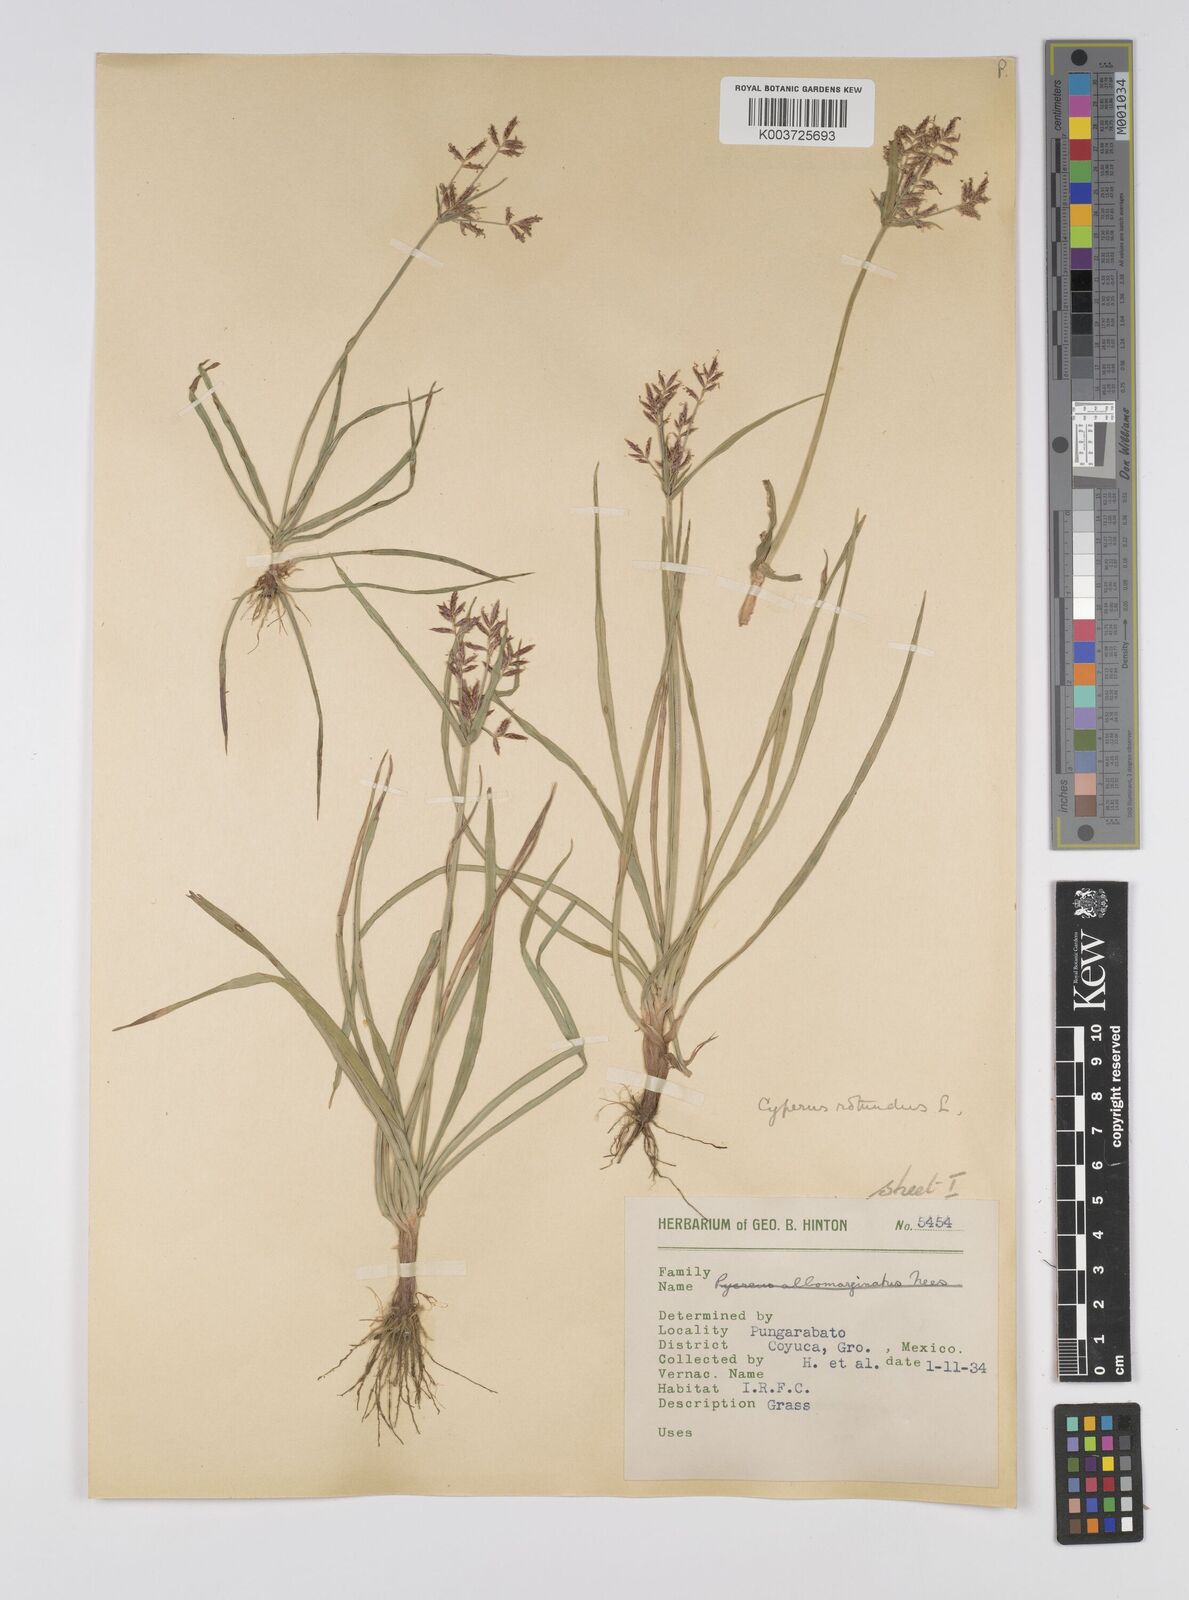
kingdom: Plantae
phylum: Tracheophyta
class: Liliopsida
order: Poales
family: Cyperaceae
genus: Cyperus
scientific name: Cyperus rotundus
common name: Nutgrass
